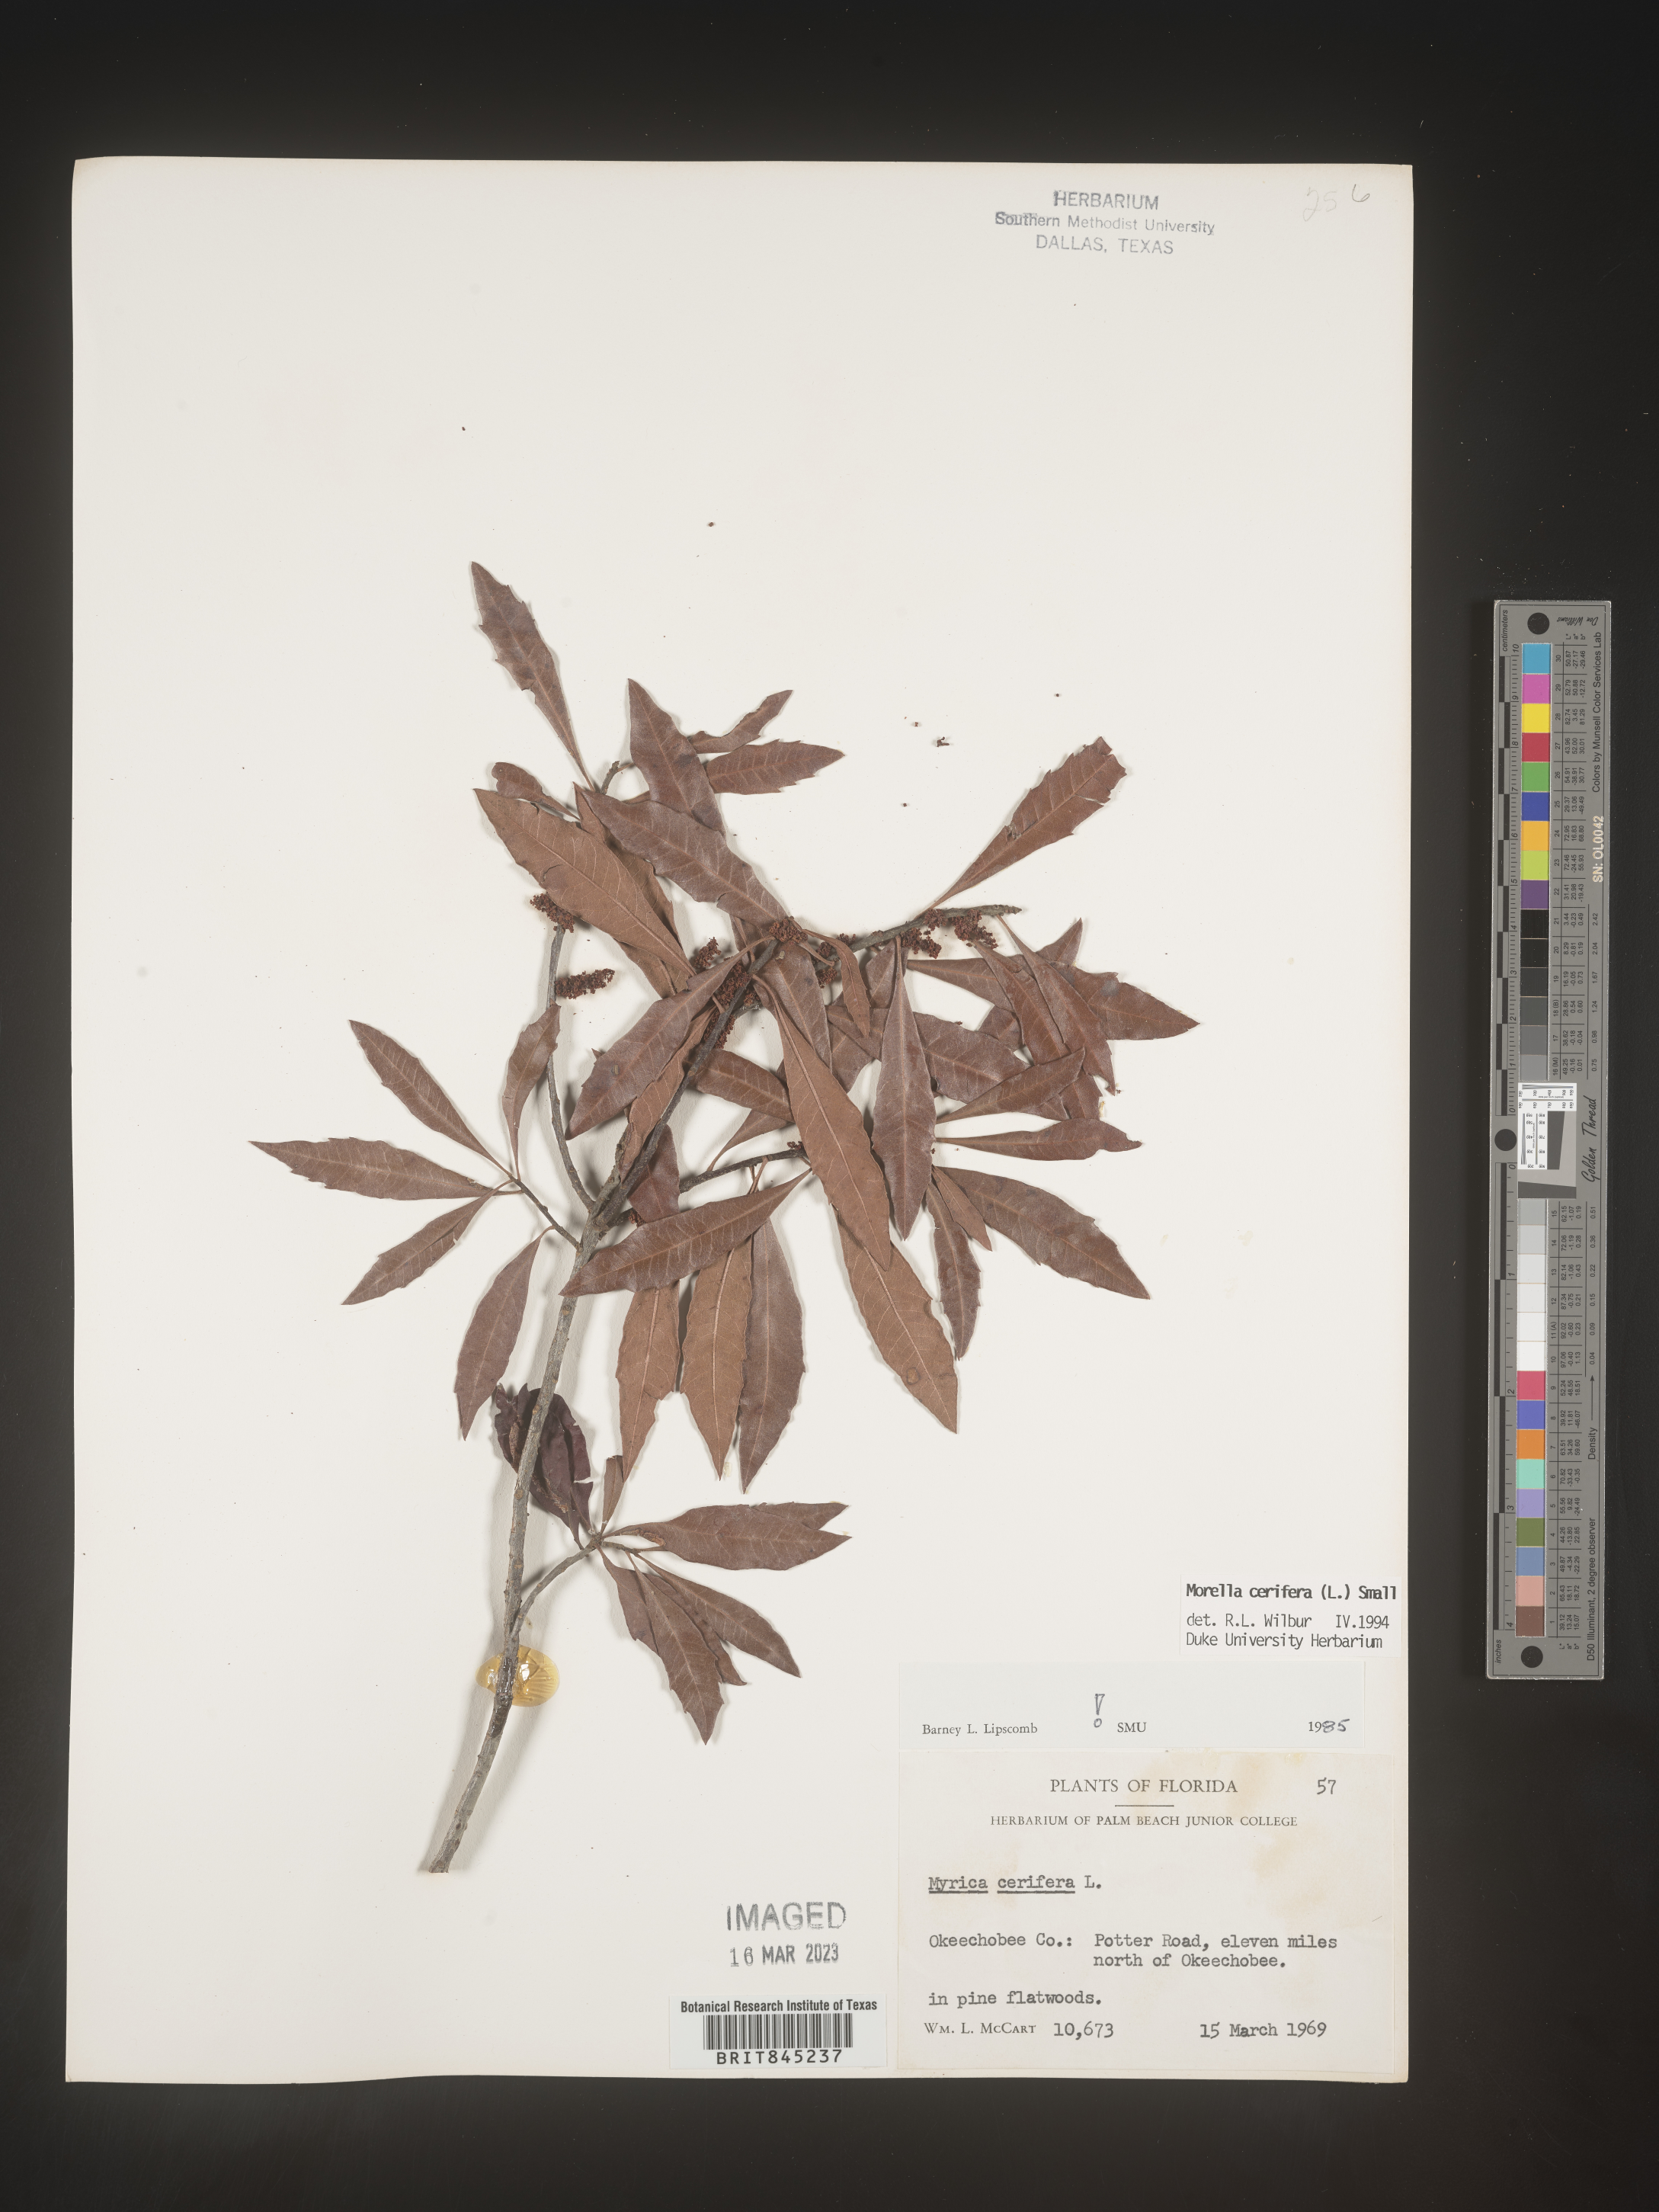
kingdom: Plantae
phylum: Tracheophyta
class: Magnoliopsida
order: Fagales
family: Myricaceae
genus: Morella
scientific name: Morella cerifera
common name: Wax myrtle
